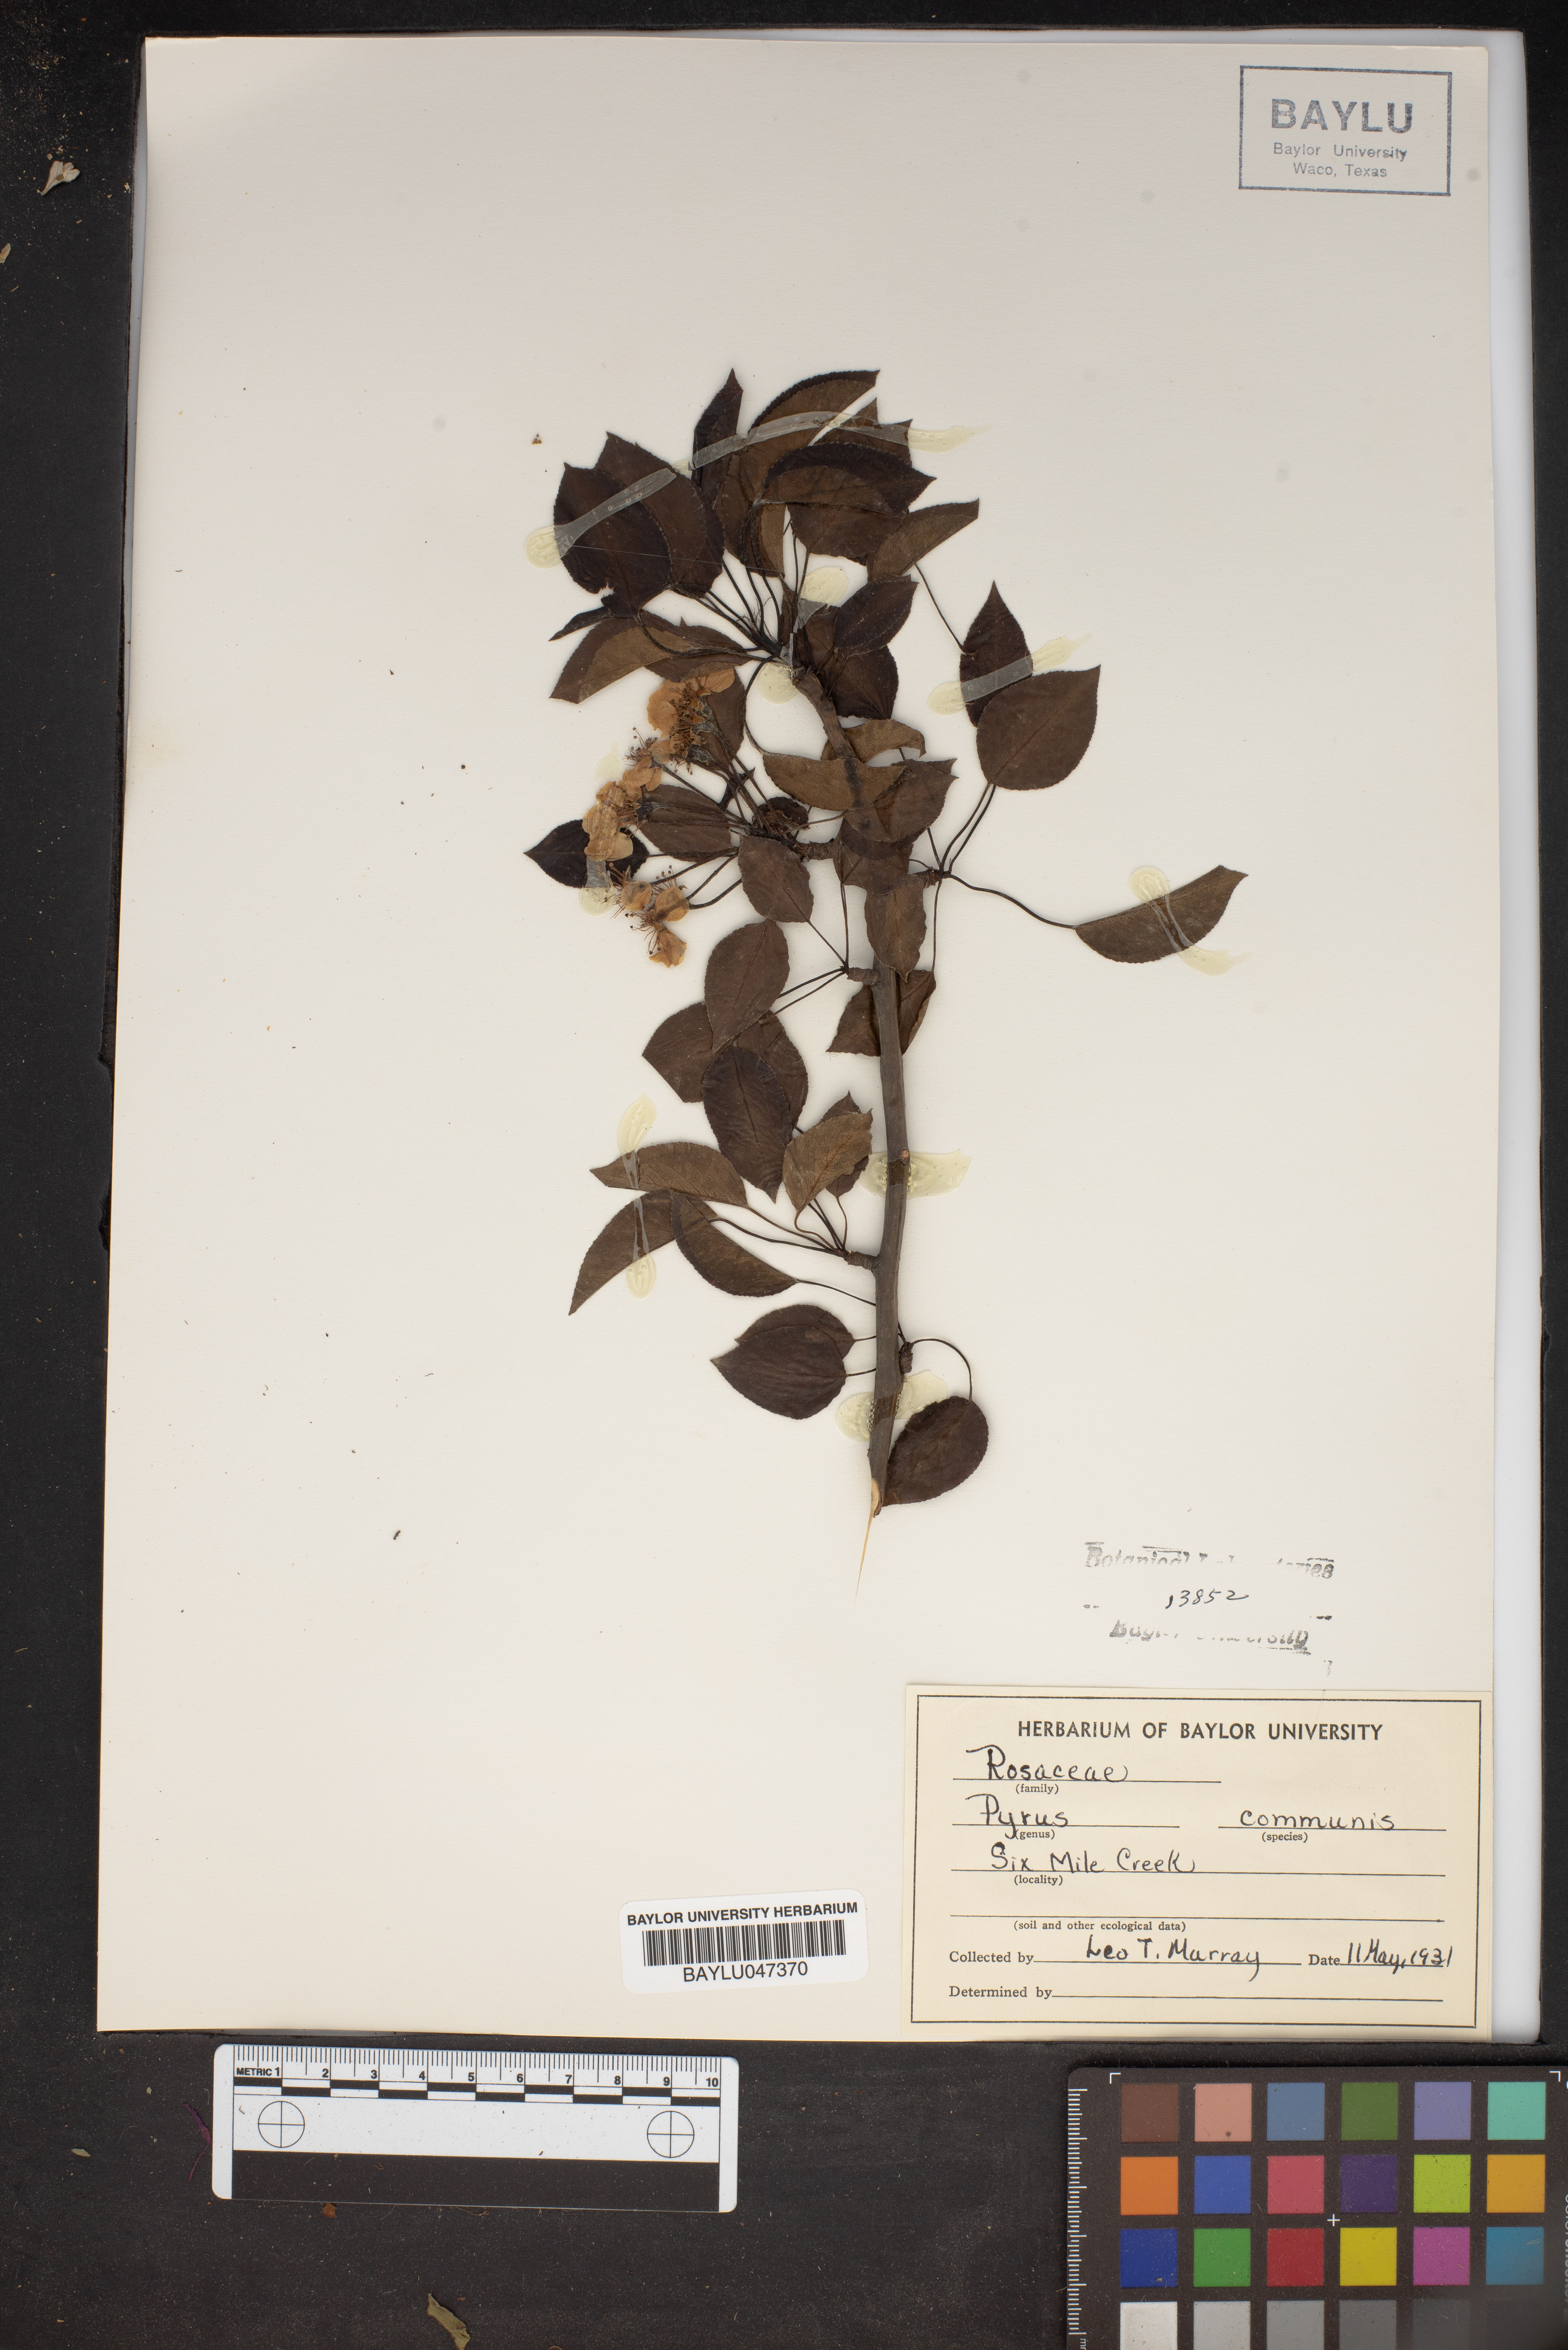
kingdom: Plantae
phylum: Tracheophyta
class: Magnoliopsida
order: Rosales
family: Rosaceae
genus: Pyrus
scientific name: Pyrus communis
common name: Pear
